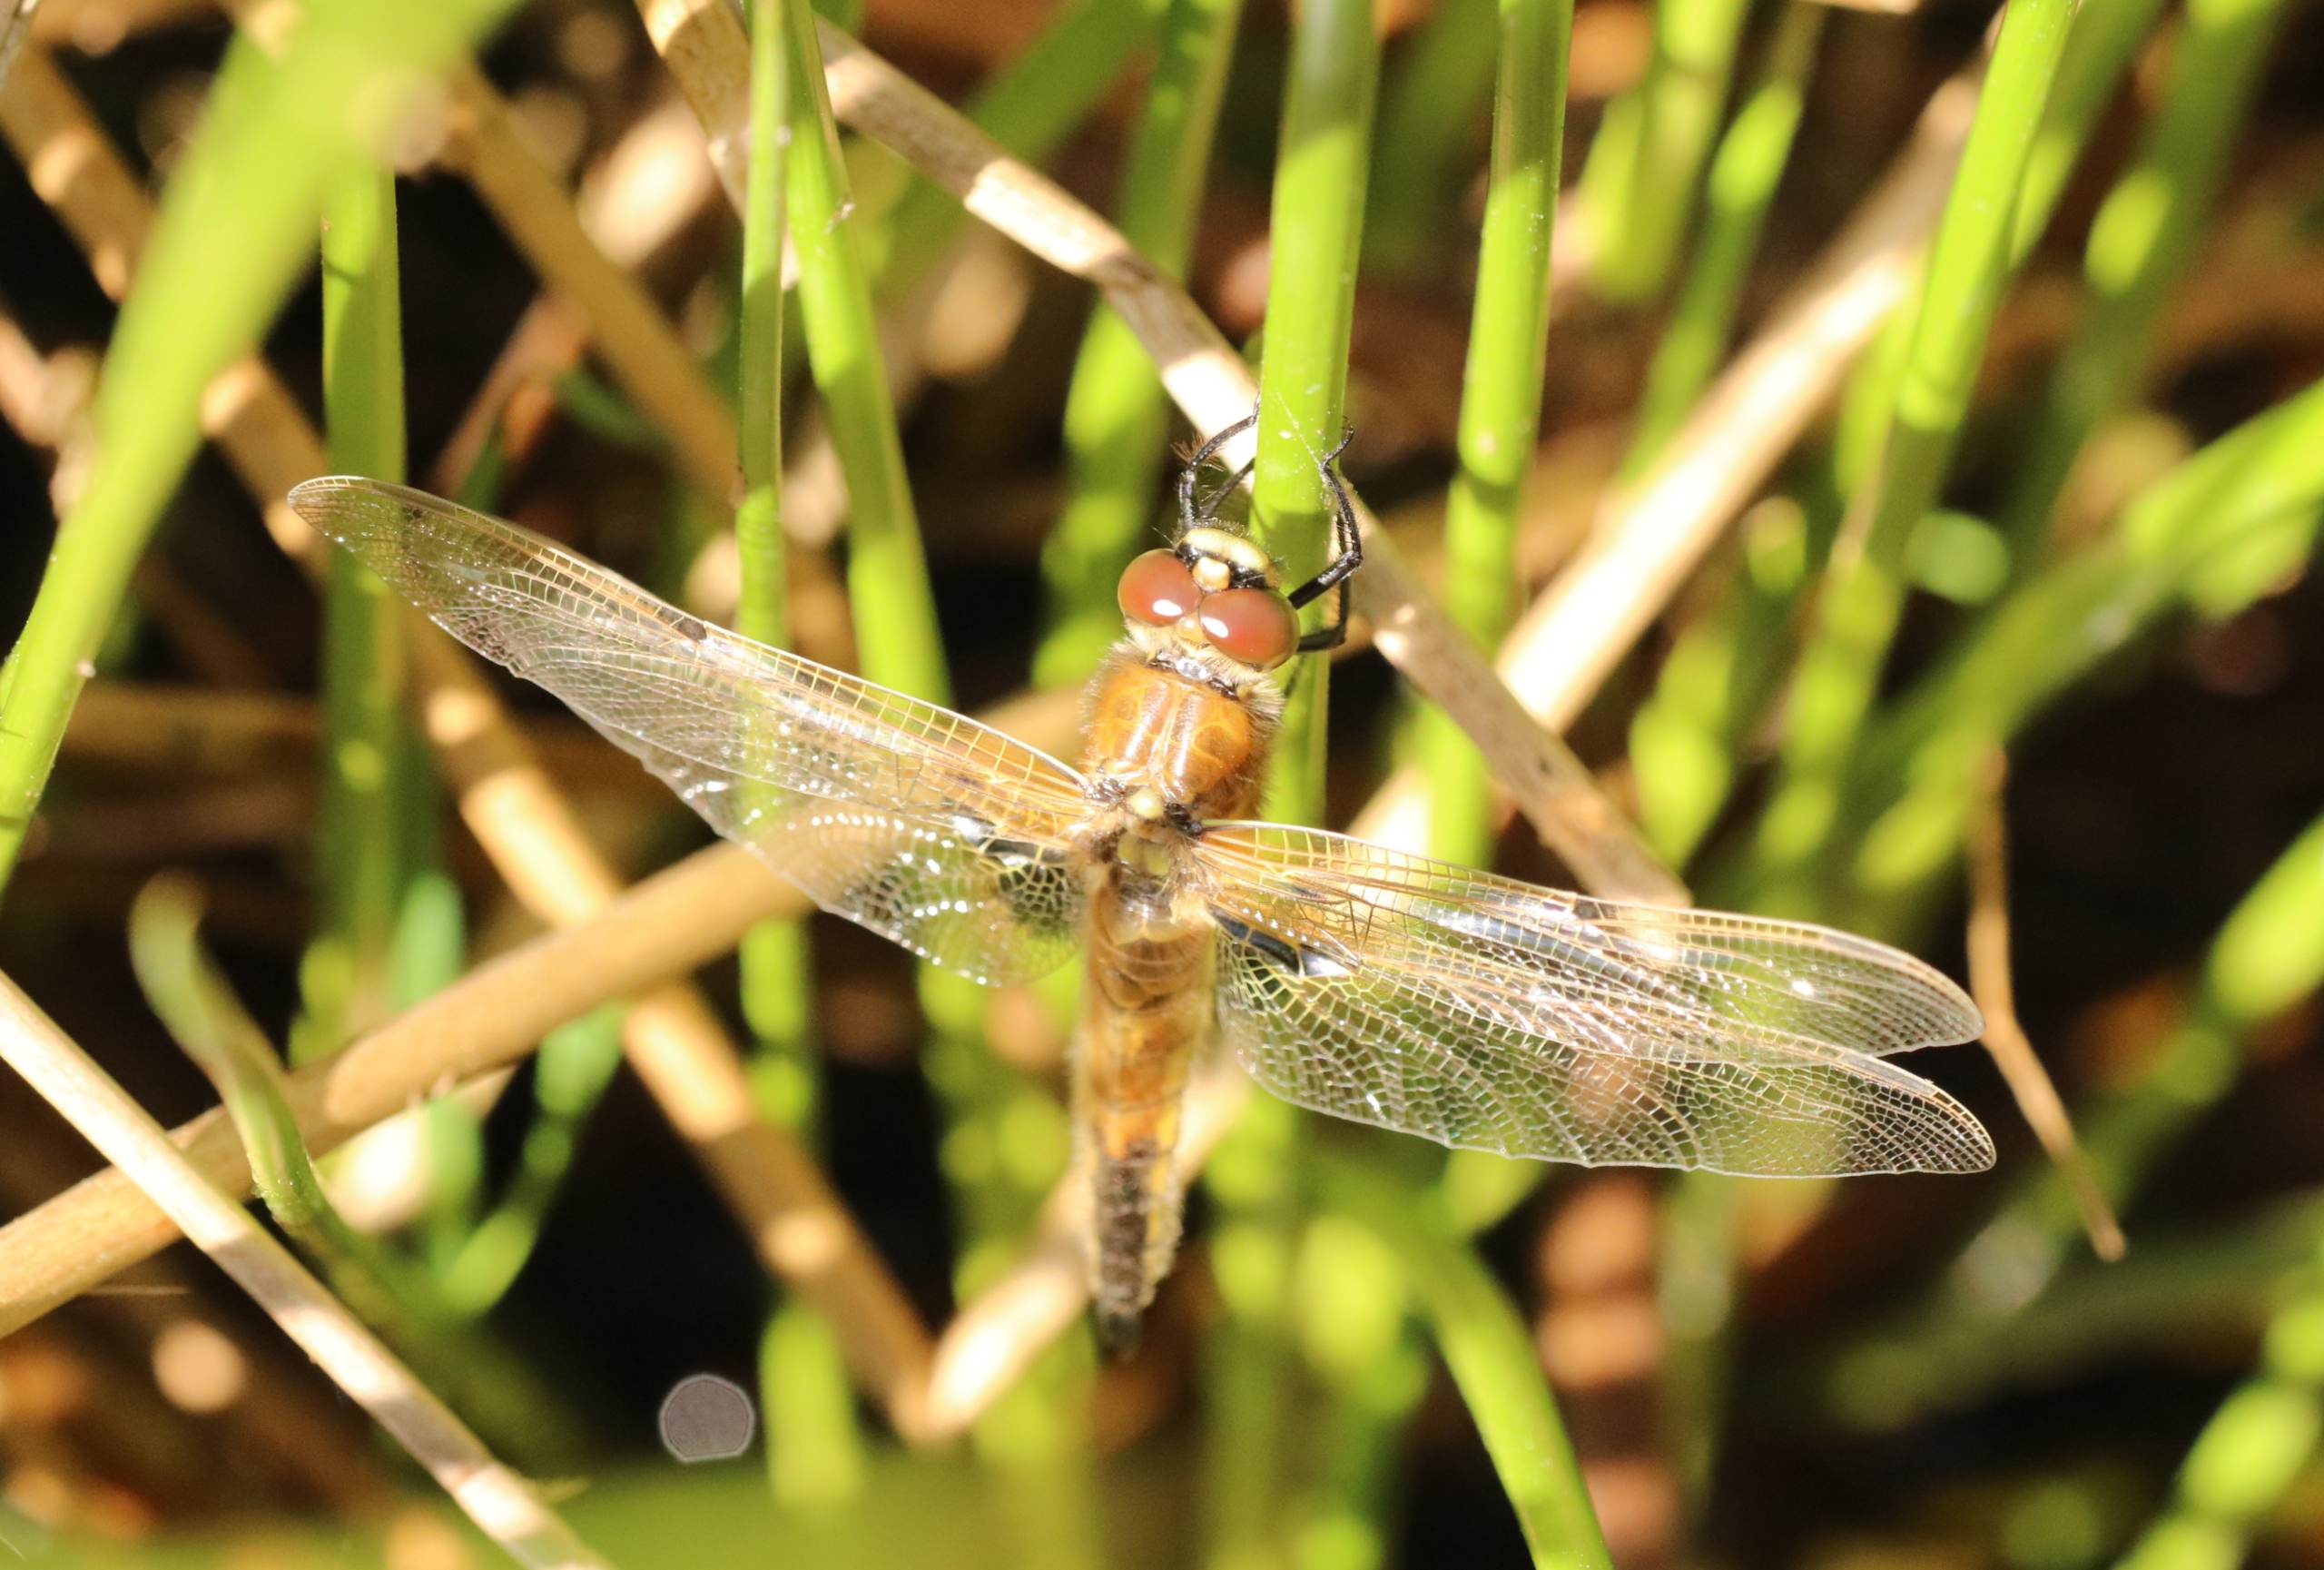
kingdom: Animalia
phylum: Arthropoda
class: Insecta
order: Odonata
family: Libellulidae
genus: Libellula
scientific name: Libellula quadrimaculata
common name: Fireplettet libel
